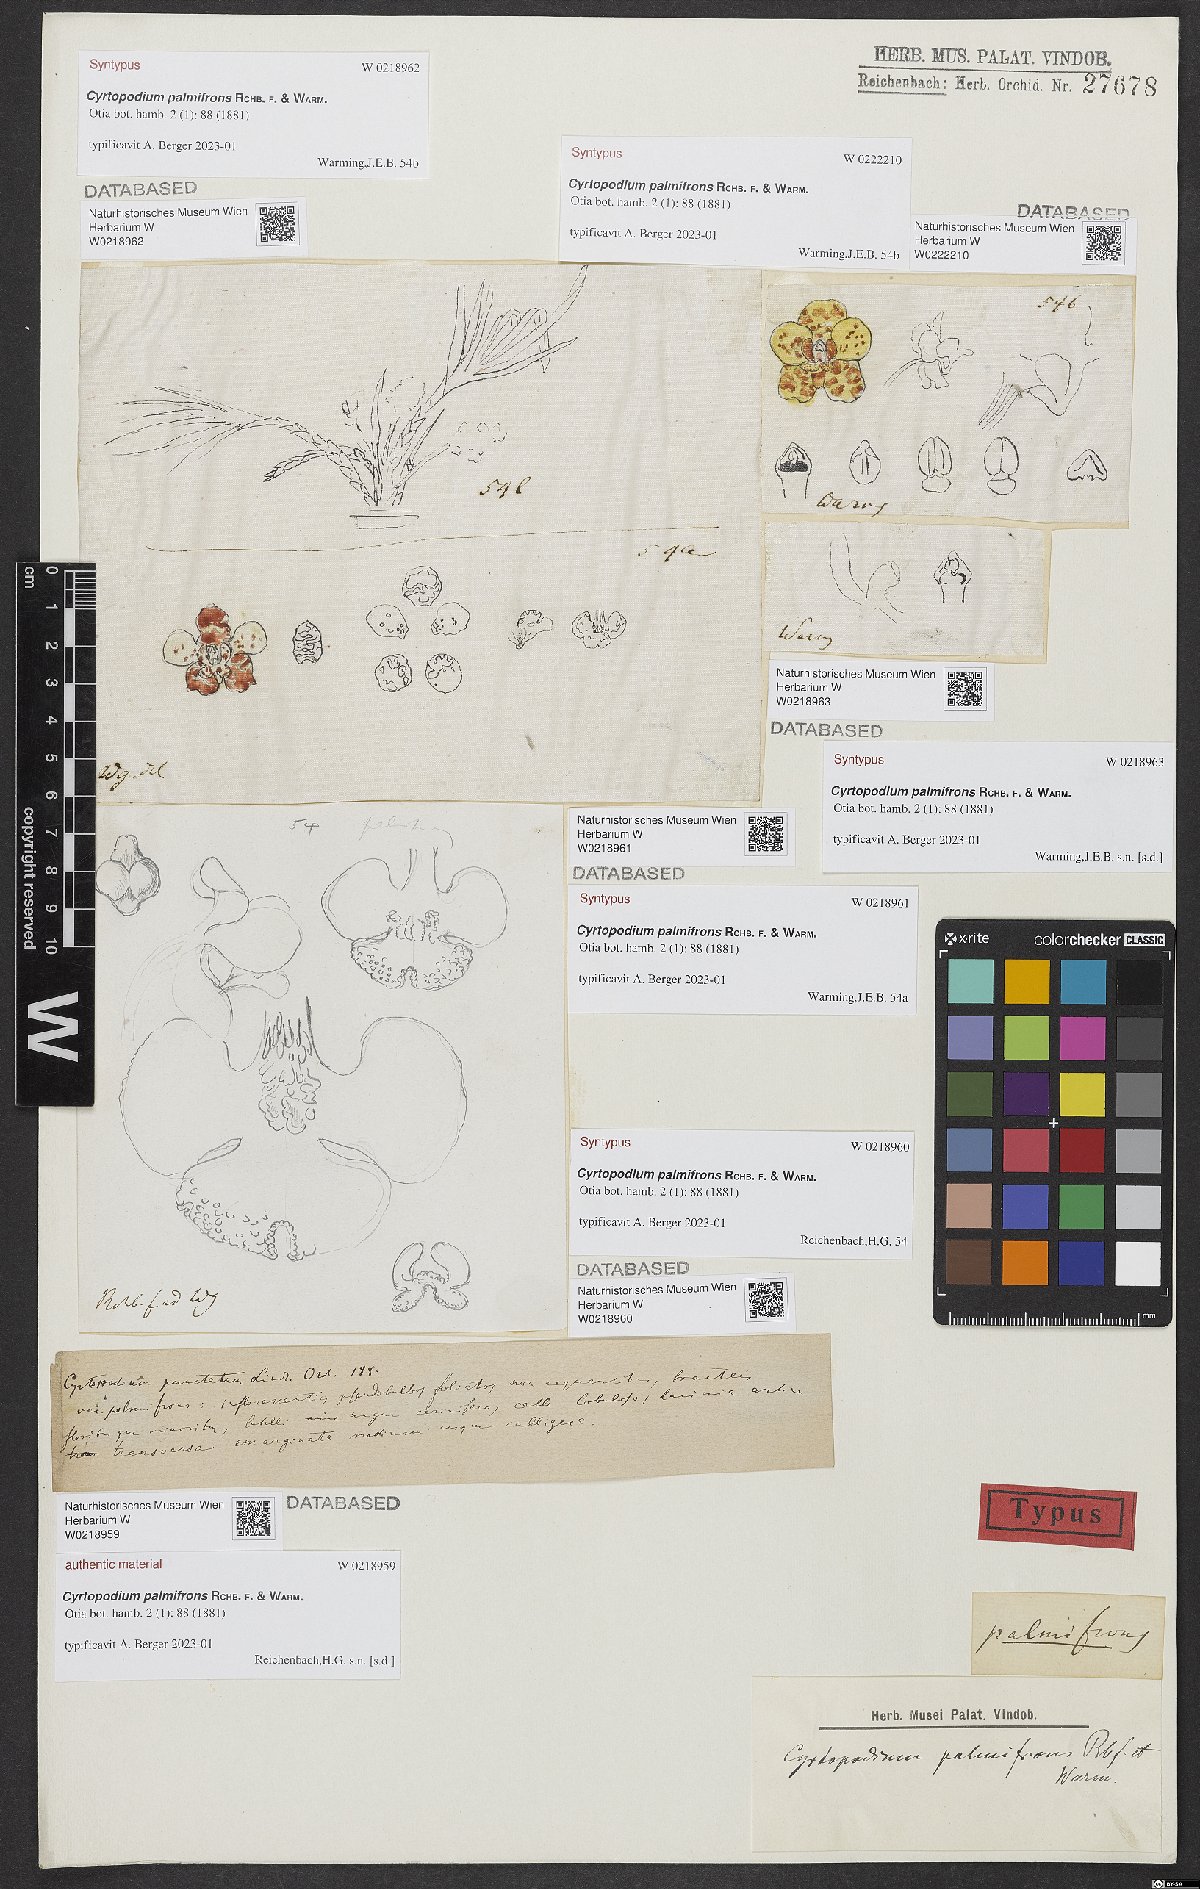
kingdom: Plantae
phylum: Tracheophyta
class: Liliopsida
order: Asparagales
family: Orchidaceae
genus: Cyrtopodium
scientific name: Cyrtopodium palmifrons
